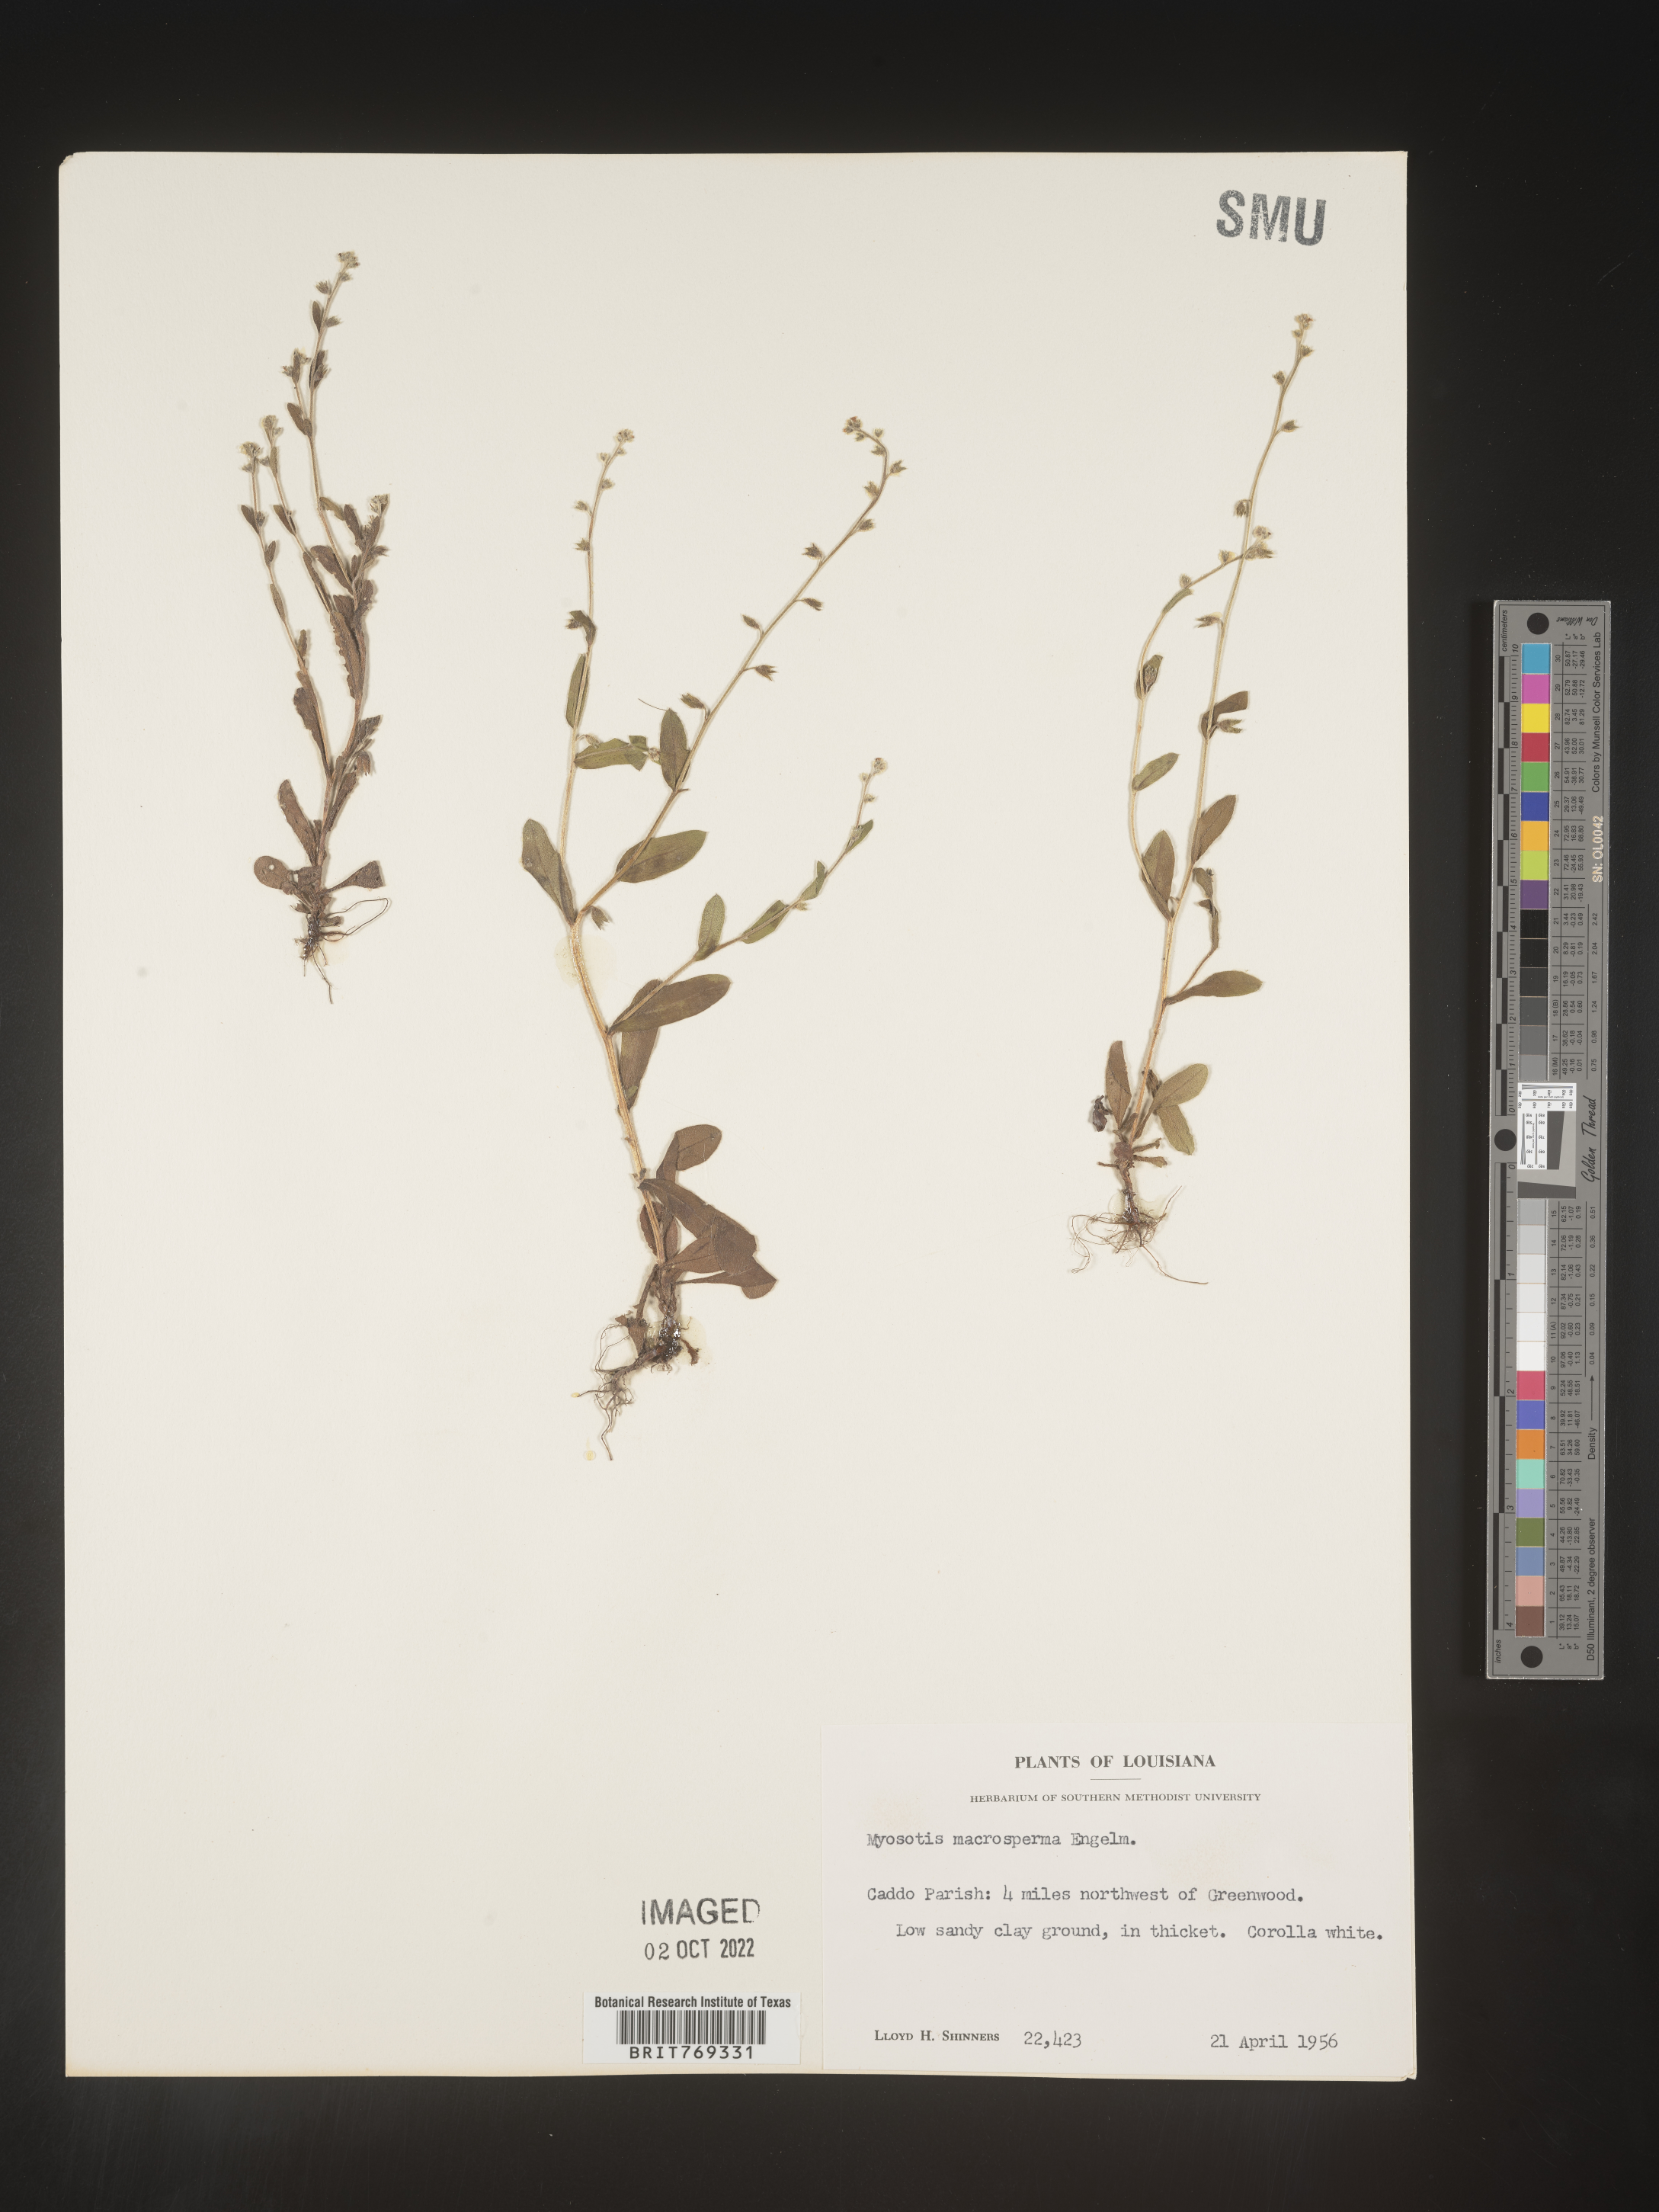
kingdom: Plantae
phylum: Tracheophyta
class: Magnoliopsida
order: Boraginales
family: Boraginaceae
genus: Myosotis
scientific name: Myosotis macrosperma
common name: Large-seed forget-me-not
